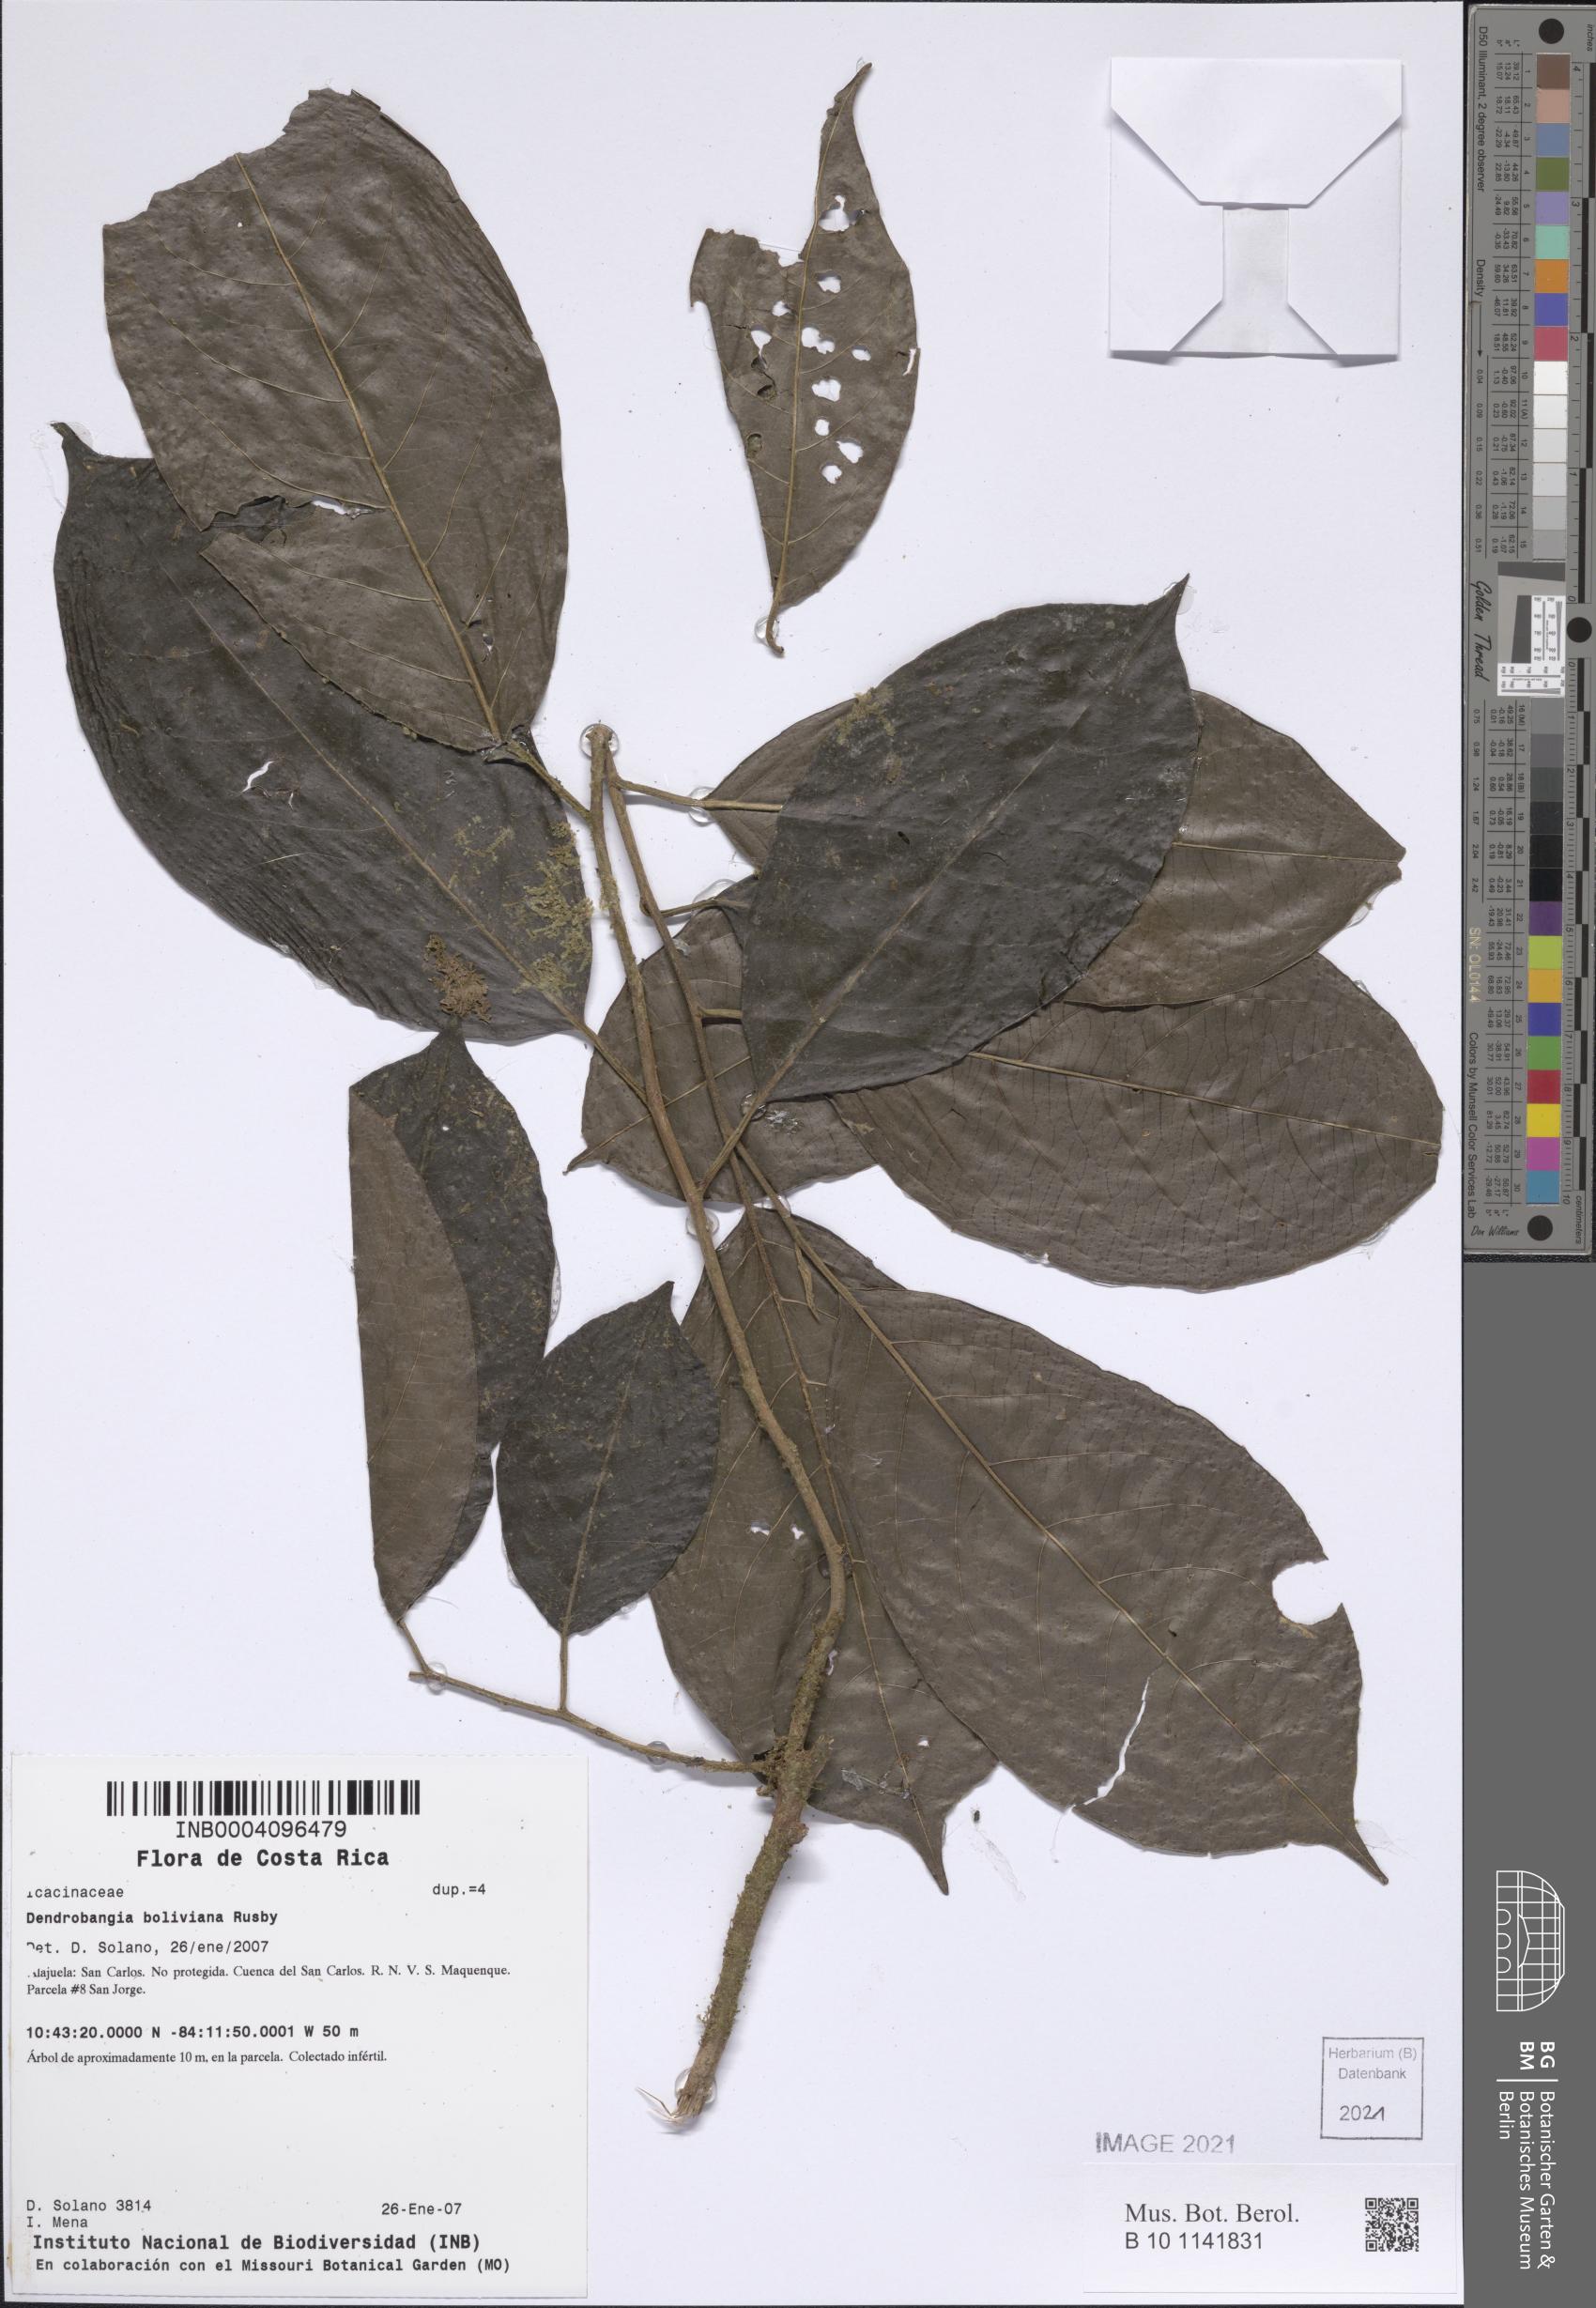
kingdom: Plantae
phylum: Tracheophyta
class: Magnoliopsida
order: Metteniusales
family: Metteniusaceae
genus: Dendrobangia
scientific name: Dendrobangia boliviana
